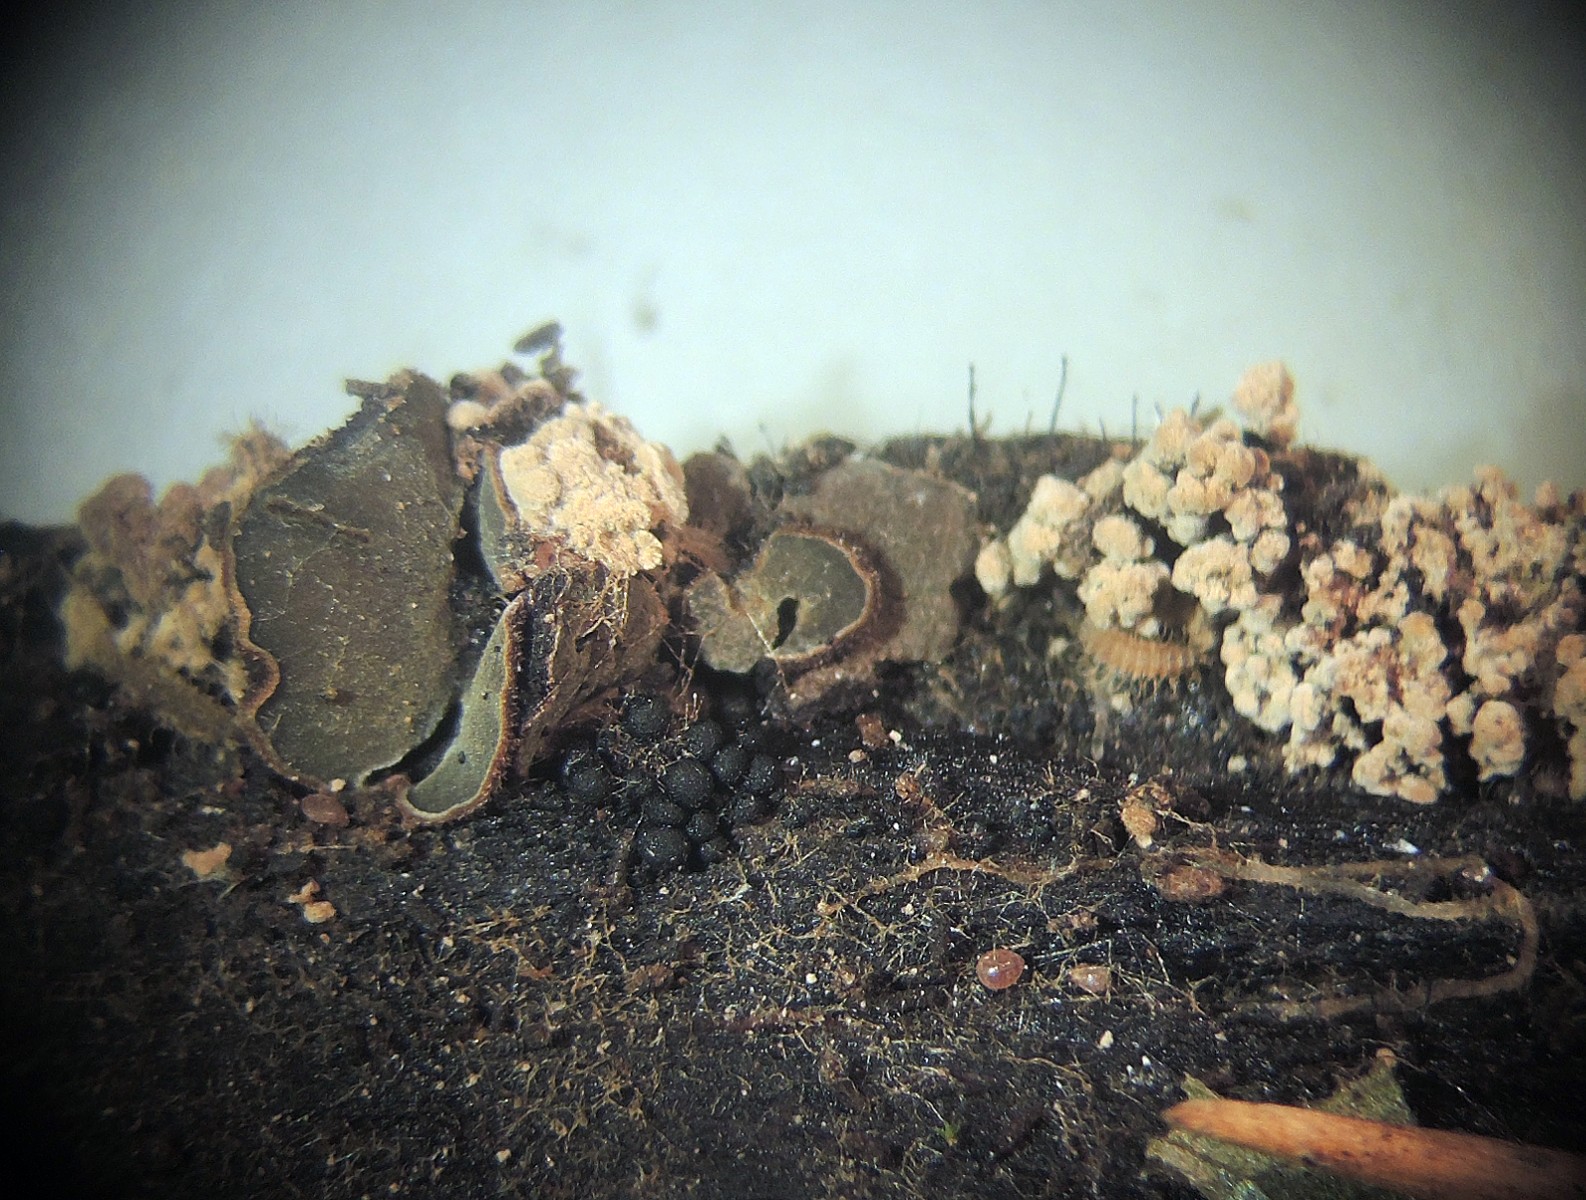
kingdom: Fungi
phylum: Ascomycota
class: Leotiomycetes
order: Helotiales
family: Cordieritidaceae
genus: Diplocarpa
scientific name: Diplocarpa bloxamii
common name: pragthårskive
